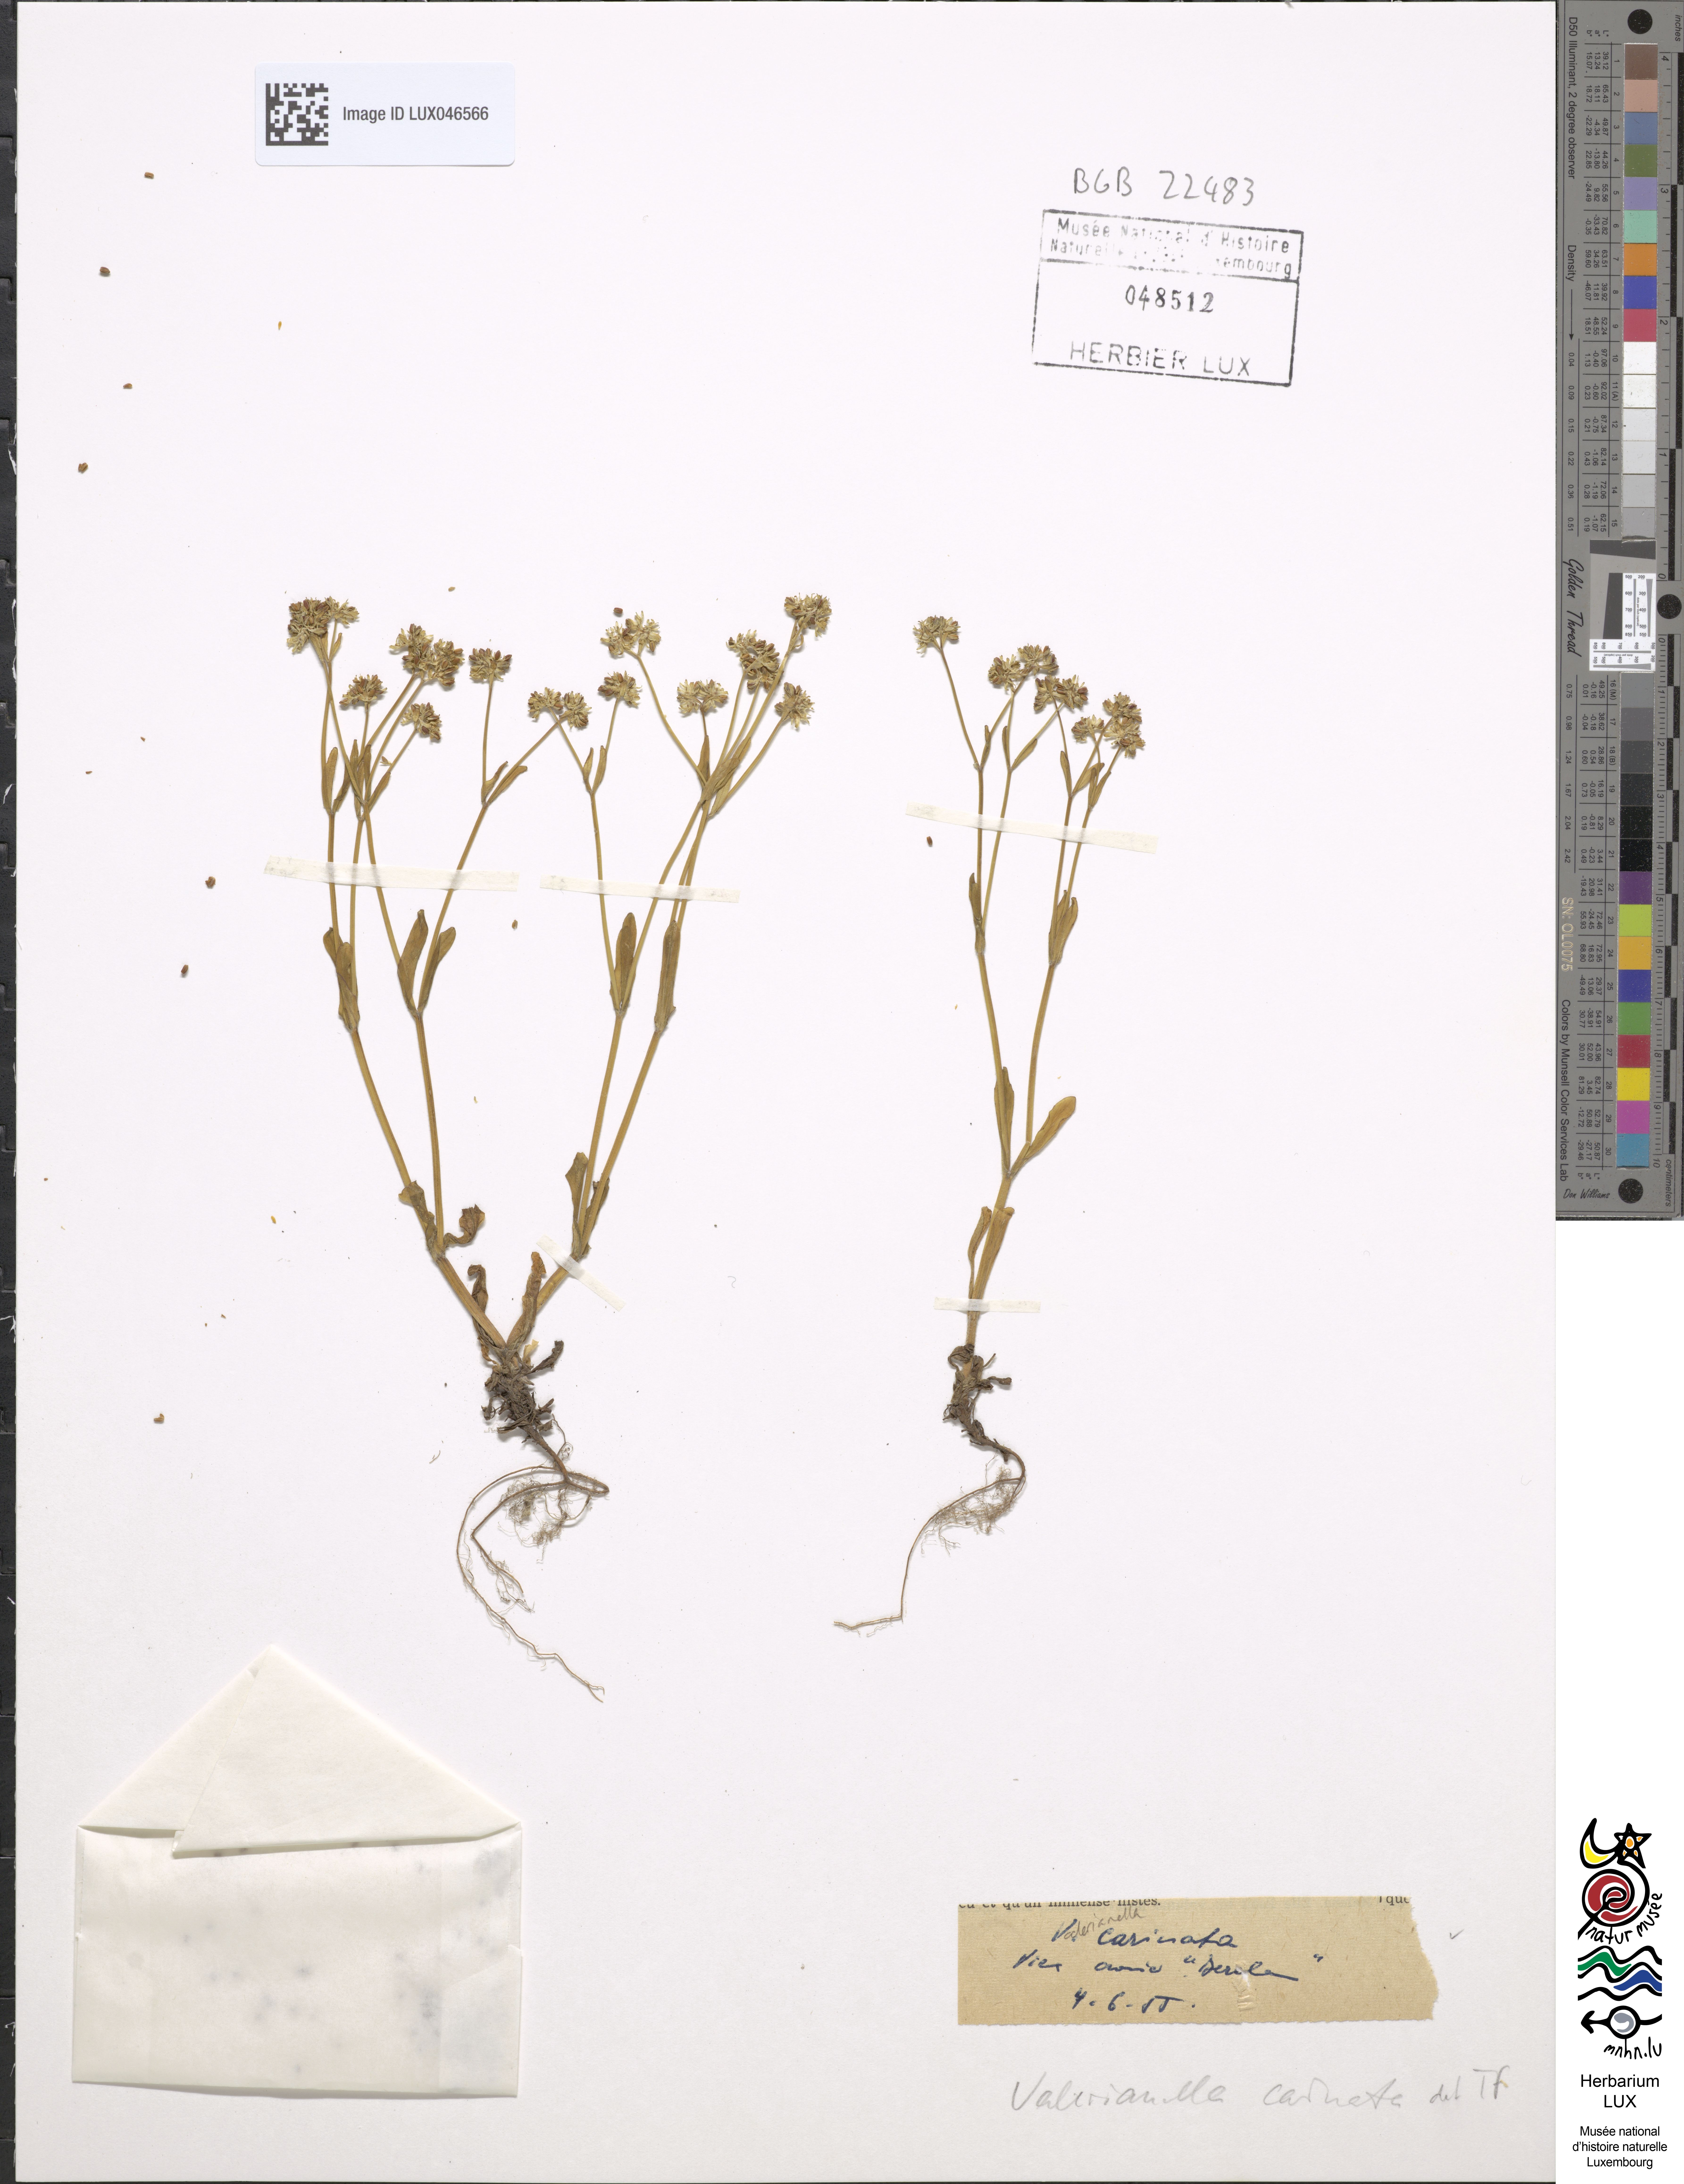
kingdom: Plantae
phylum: Tracheophyta
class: Magnoliopsida
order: Dipsacales
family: Caprifoliaceae
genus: Valerianella
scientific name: Valerianella carinata
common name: Keeled-fruited cornsalad
